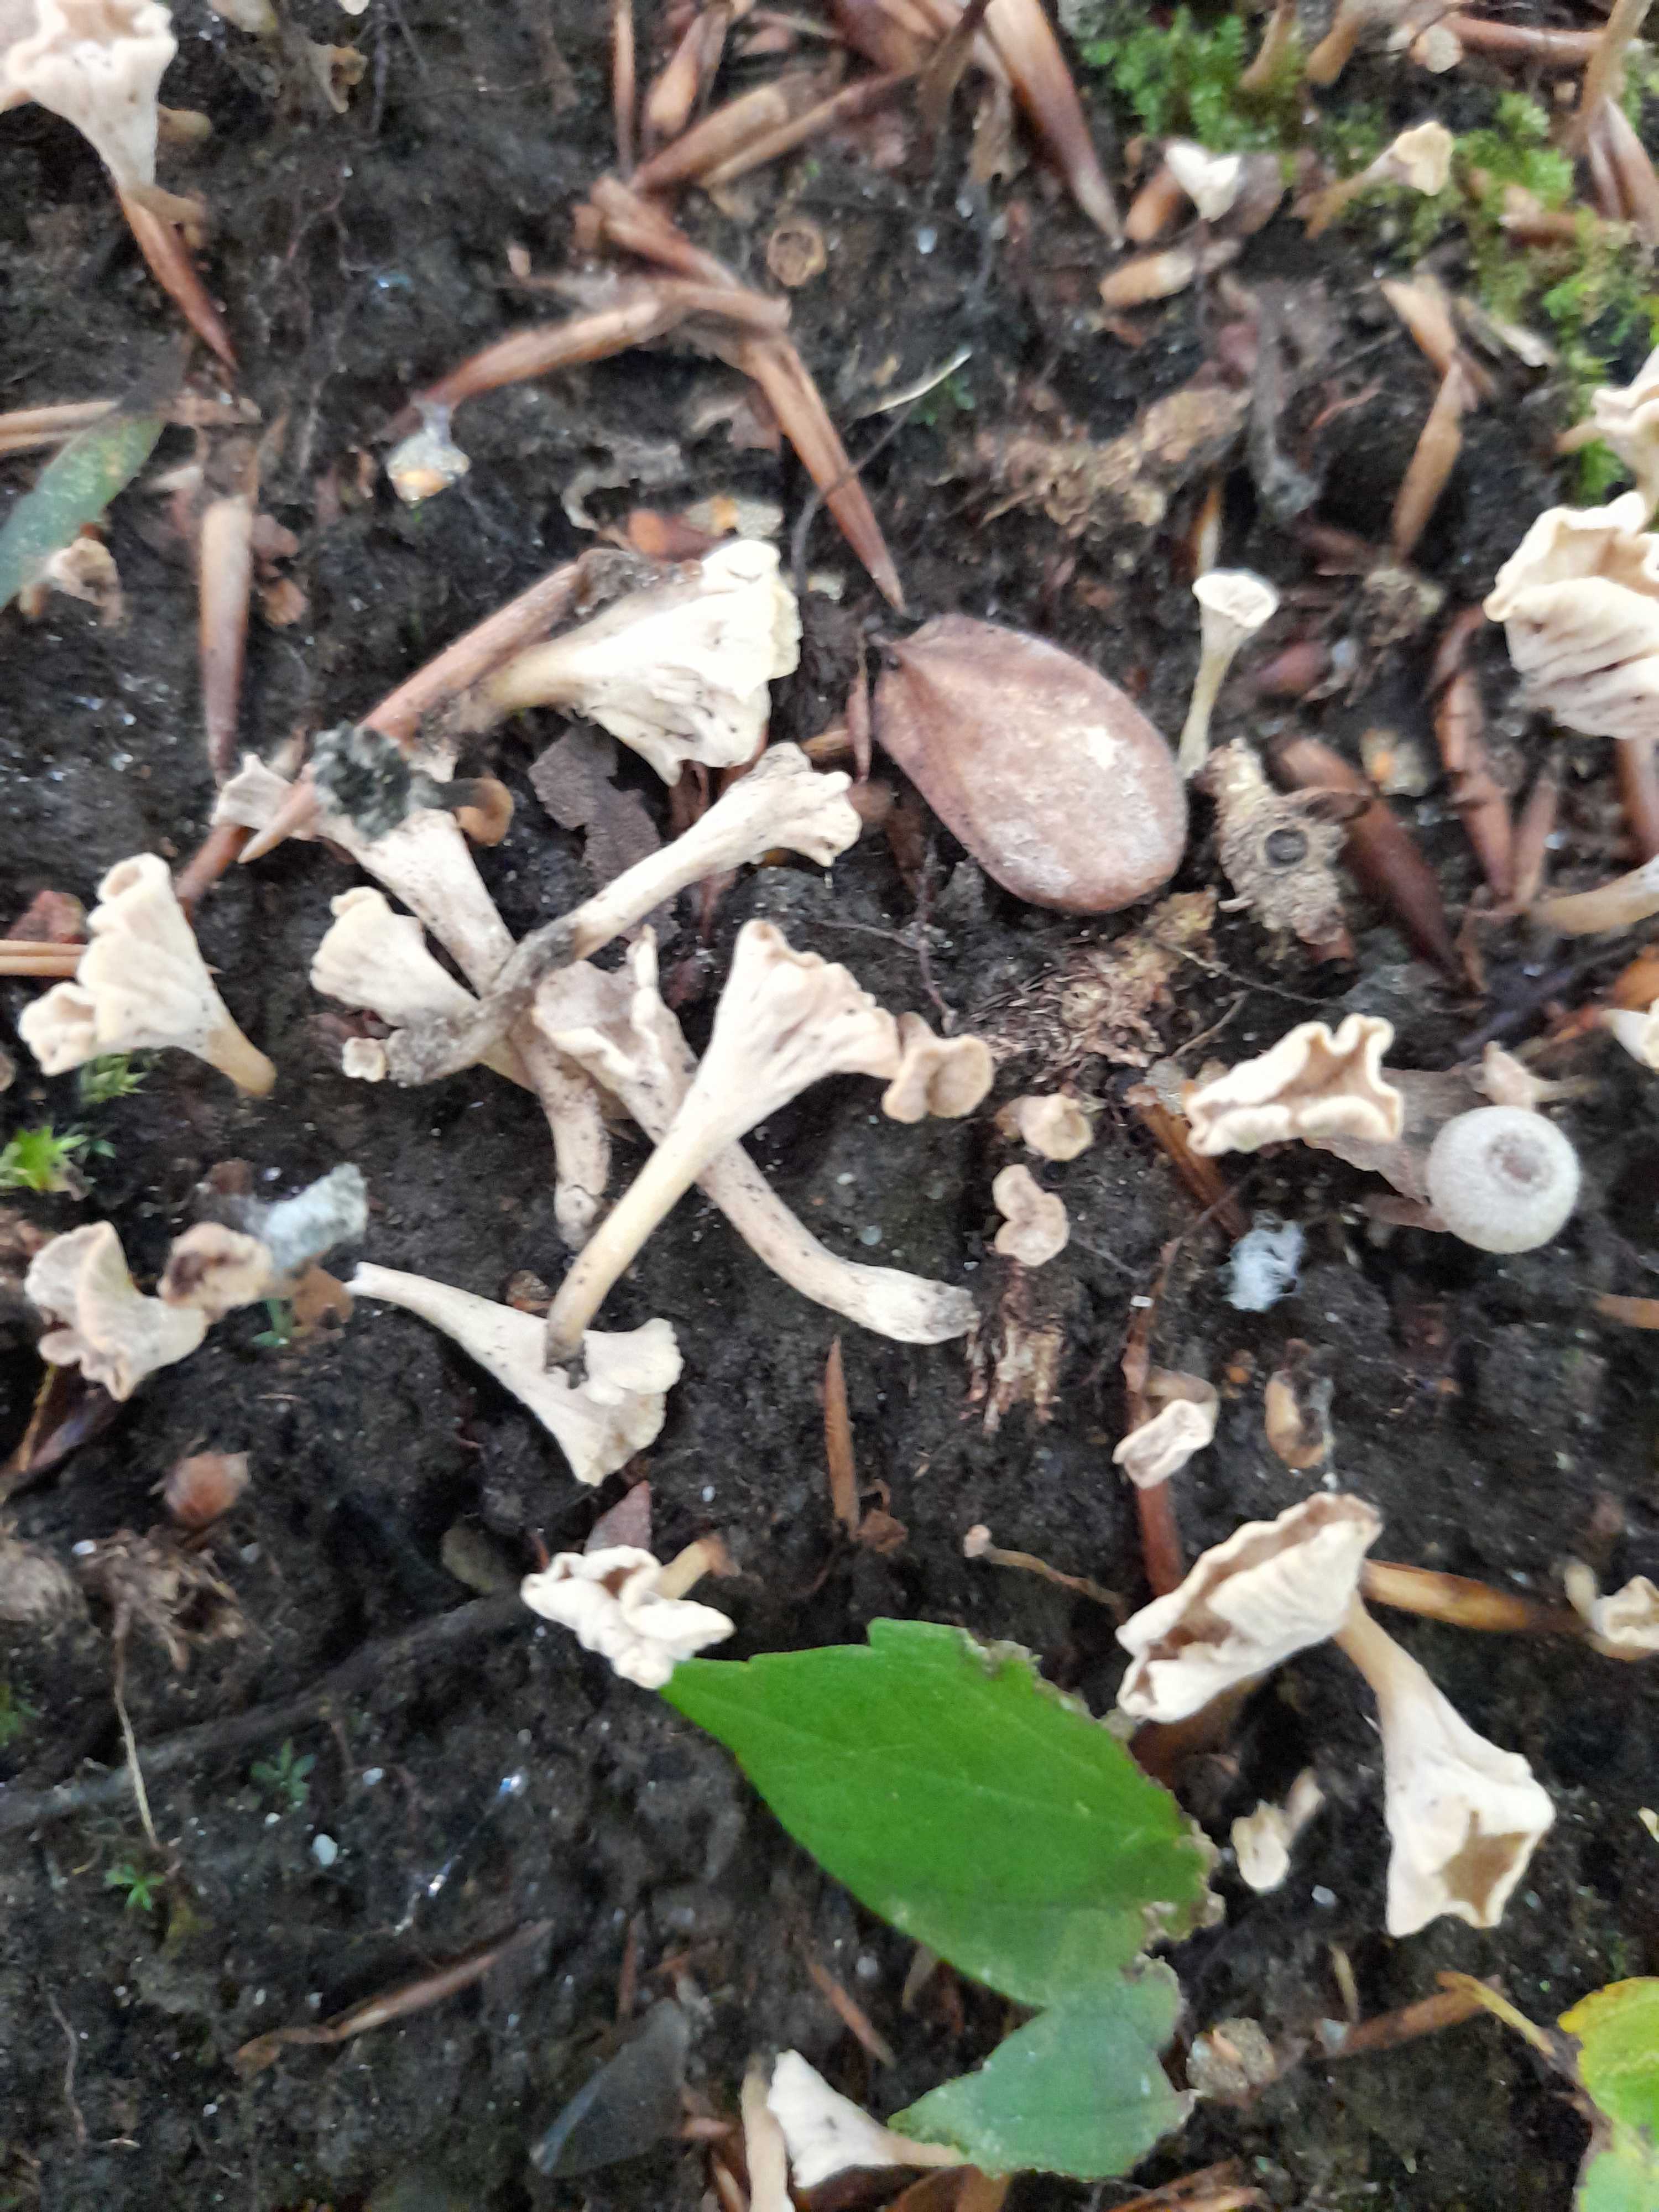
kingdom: Fungi
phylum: Basidiomycota
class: Agaricomycetes
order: Cantharellales
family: Hydnaceae
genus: Craterellus
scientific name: Craterellus undulatus
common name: liden kantarel
